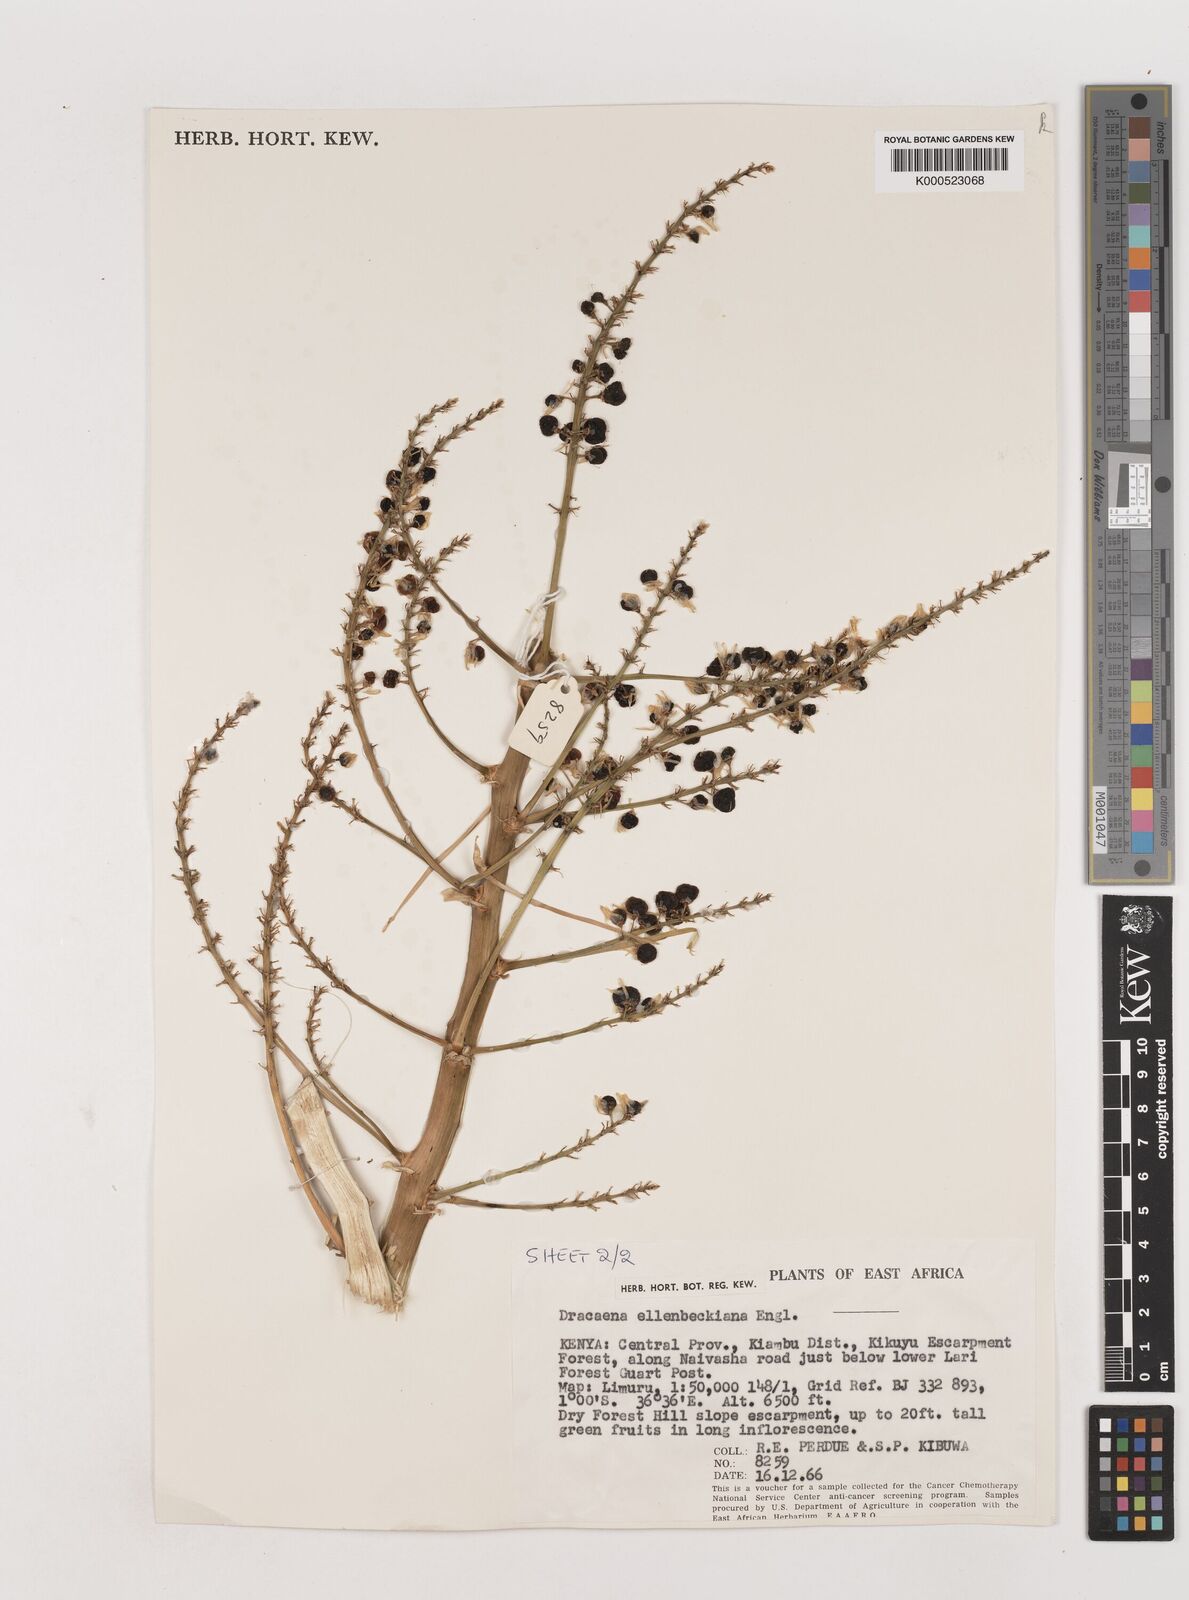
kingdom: Plantae
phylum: Tracheophyta
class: Liliopsida
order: Asparagales
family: Asparagaceae
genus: Dracaena
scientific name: Dracaena ellenbeckiana
